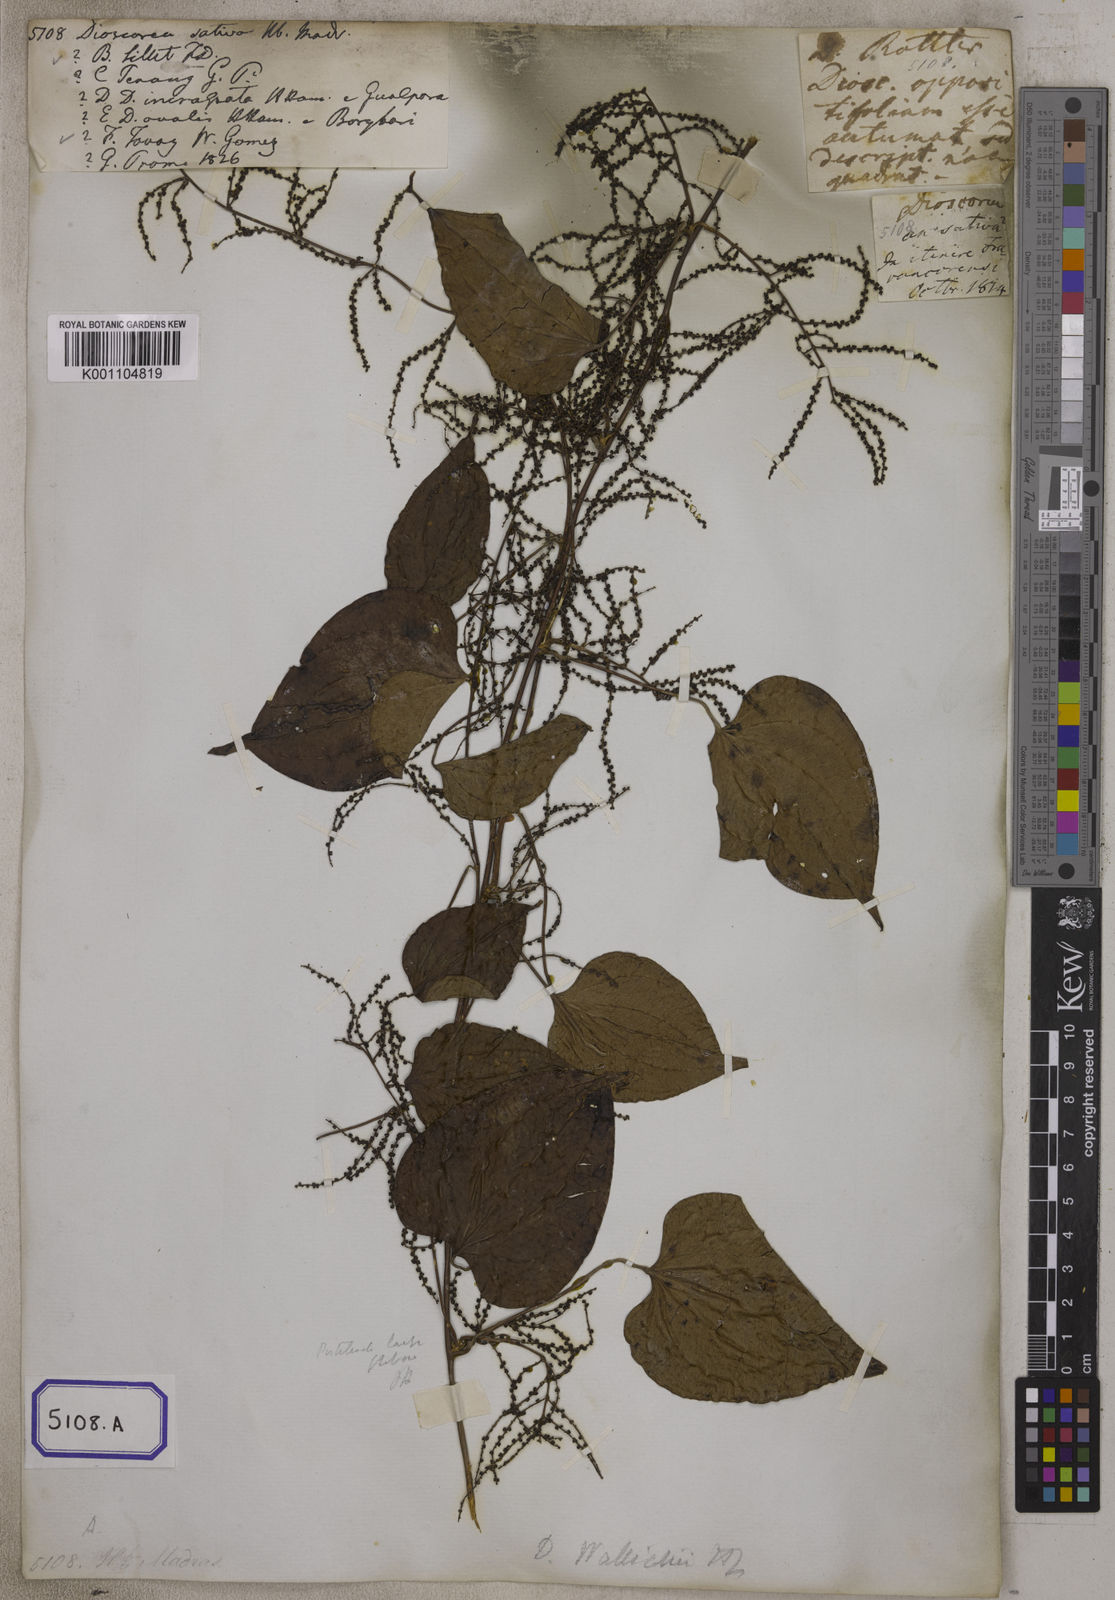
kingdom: Plantae
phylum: Tracheophyta
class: Liliopsida
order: Dioscoreales
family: Dioscoreaceae
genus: Dioscorea
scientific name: Dioscorea villosa
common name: Wild yam
